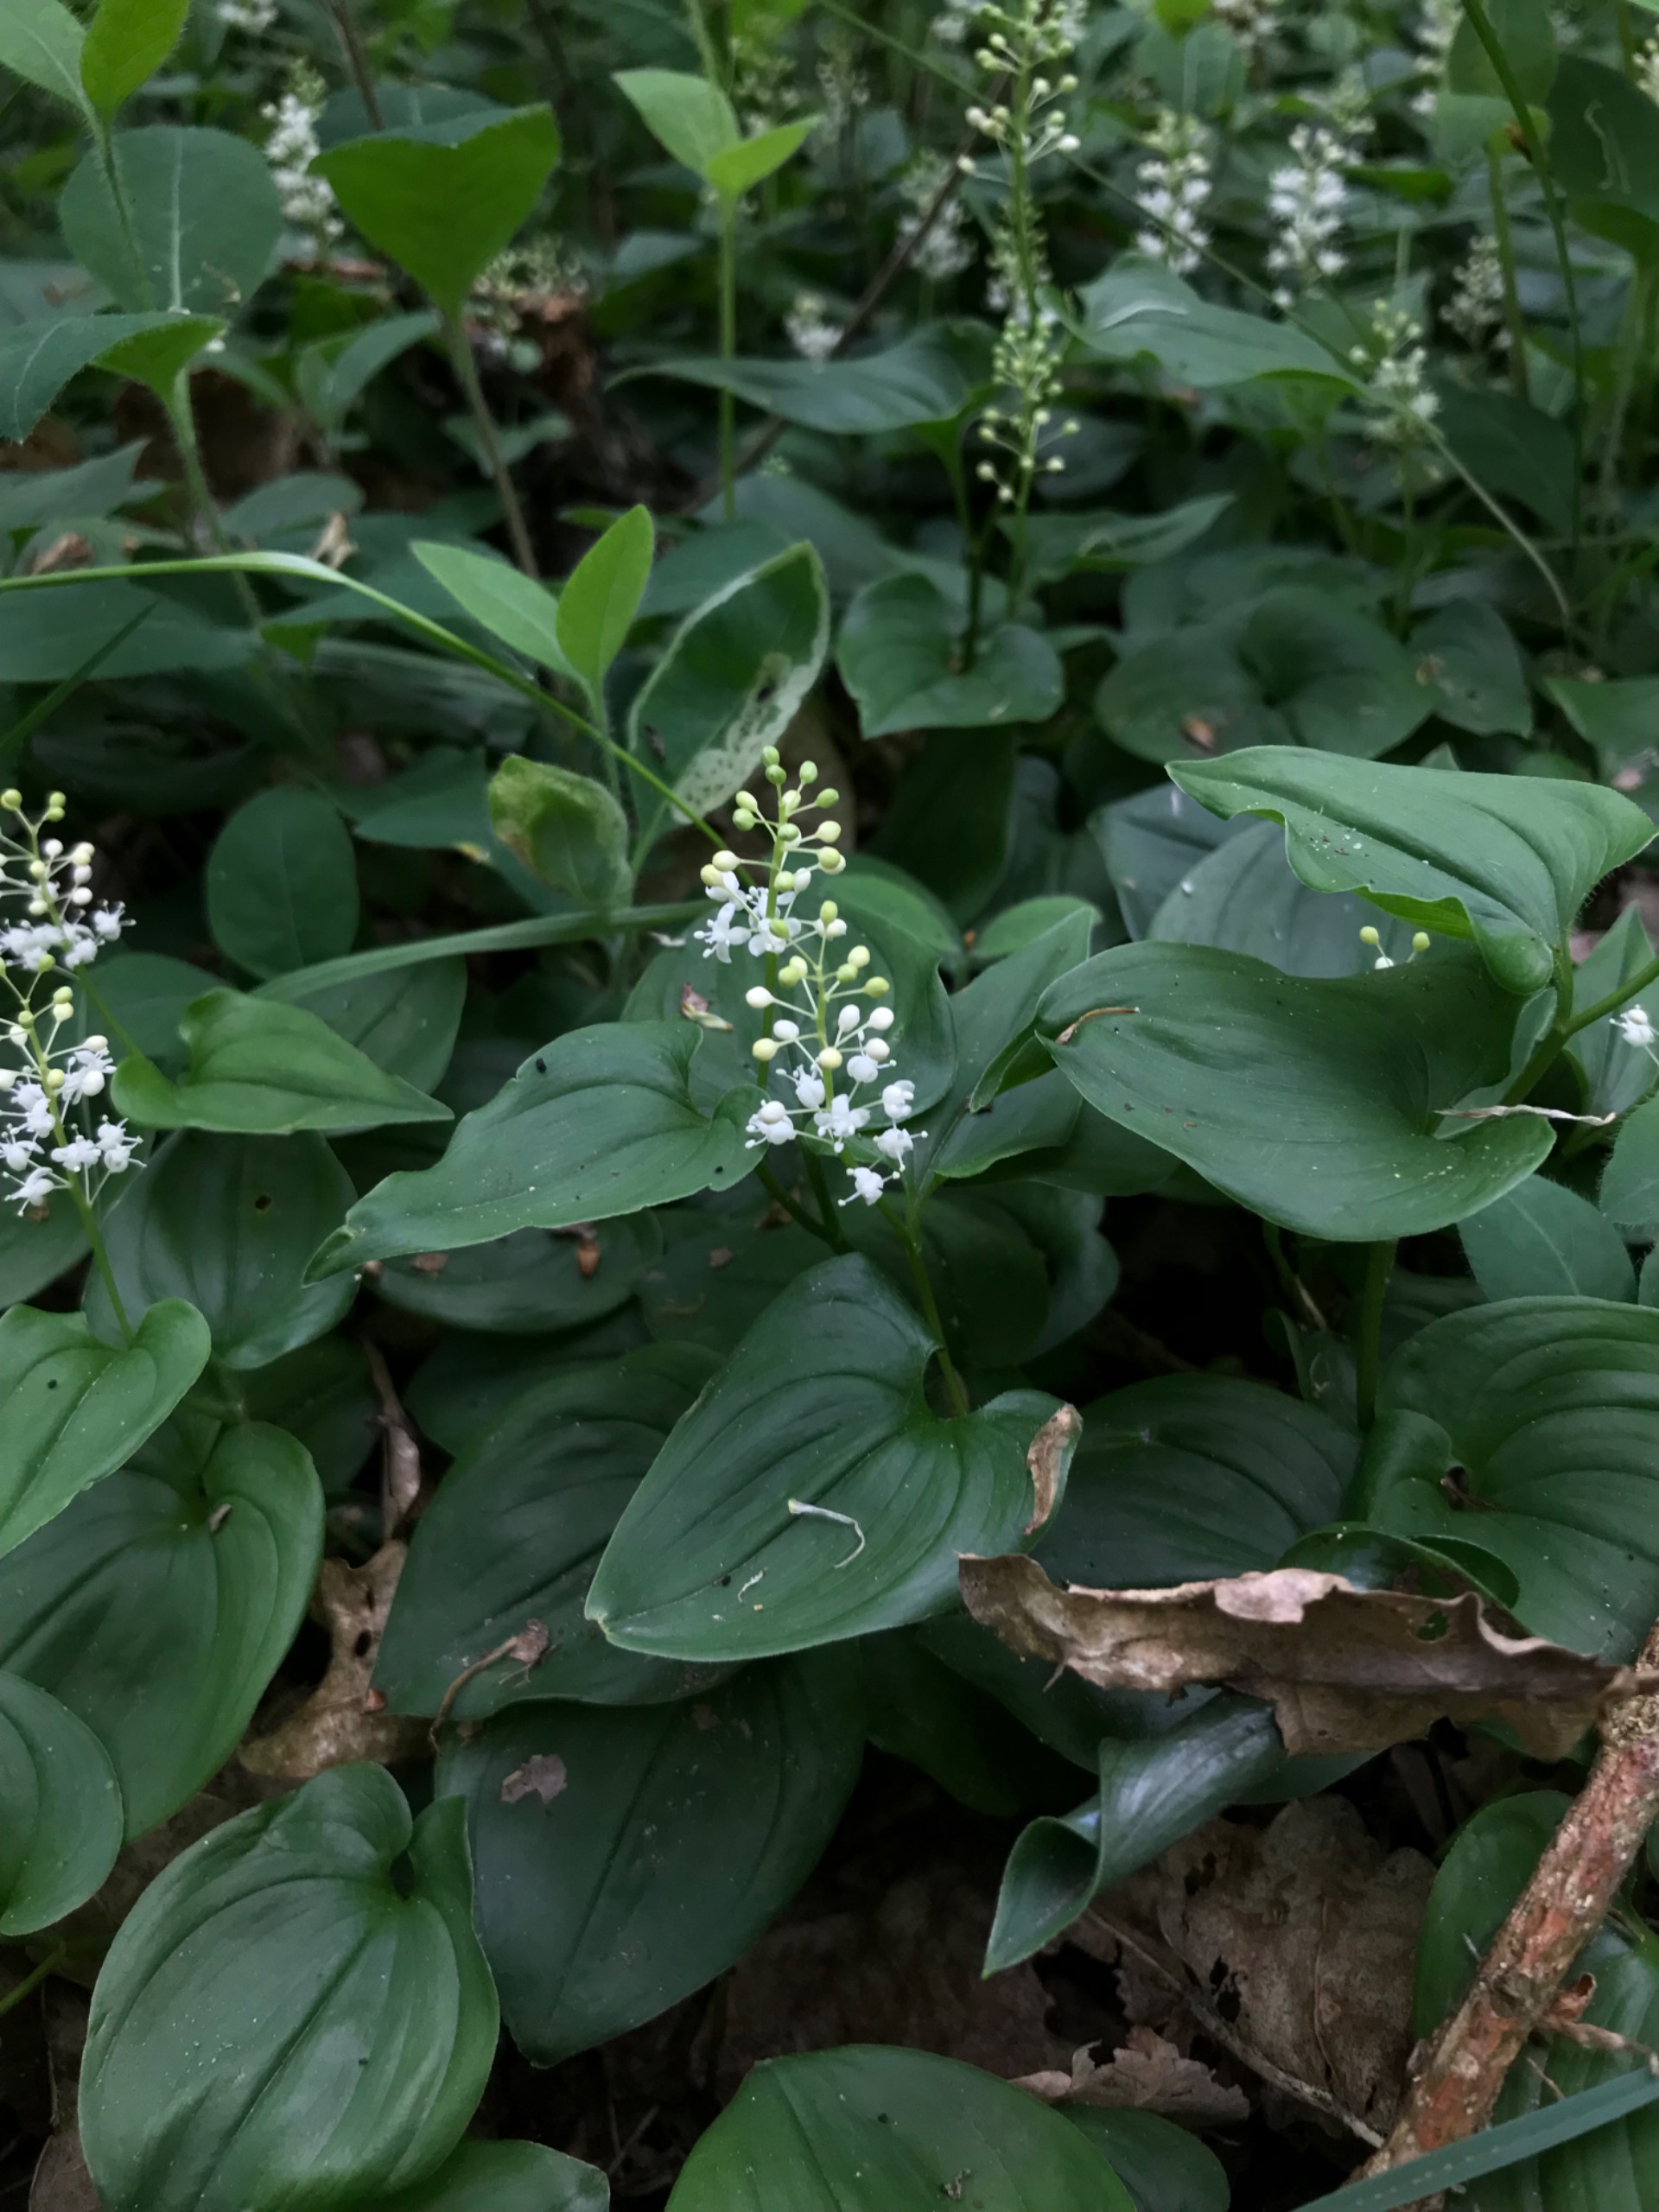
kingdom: Plantae
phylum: Tracheophyta
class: Liliopsida
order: Asparagales
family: Asparagaceae
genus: Maianthemum
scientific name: Maianthemum bifolium
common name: Majblomst
